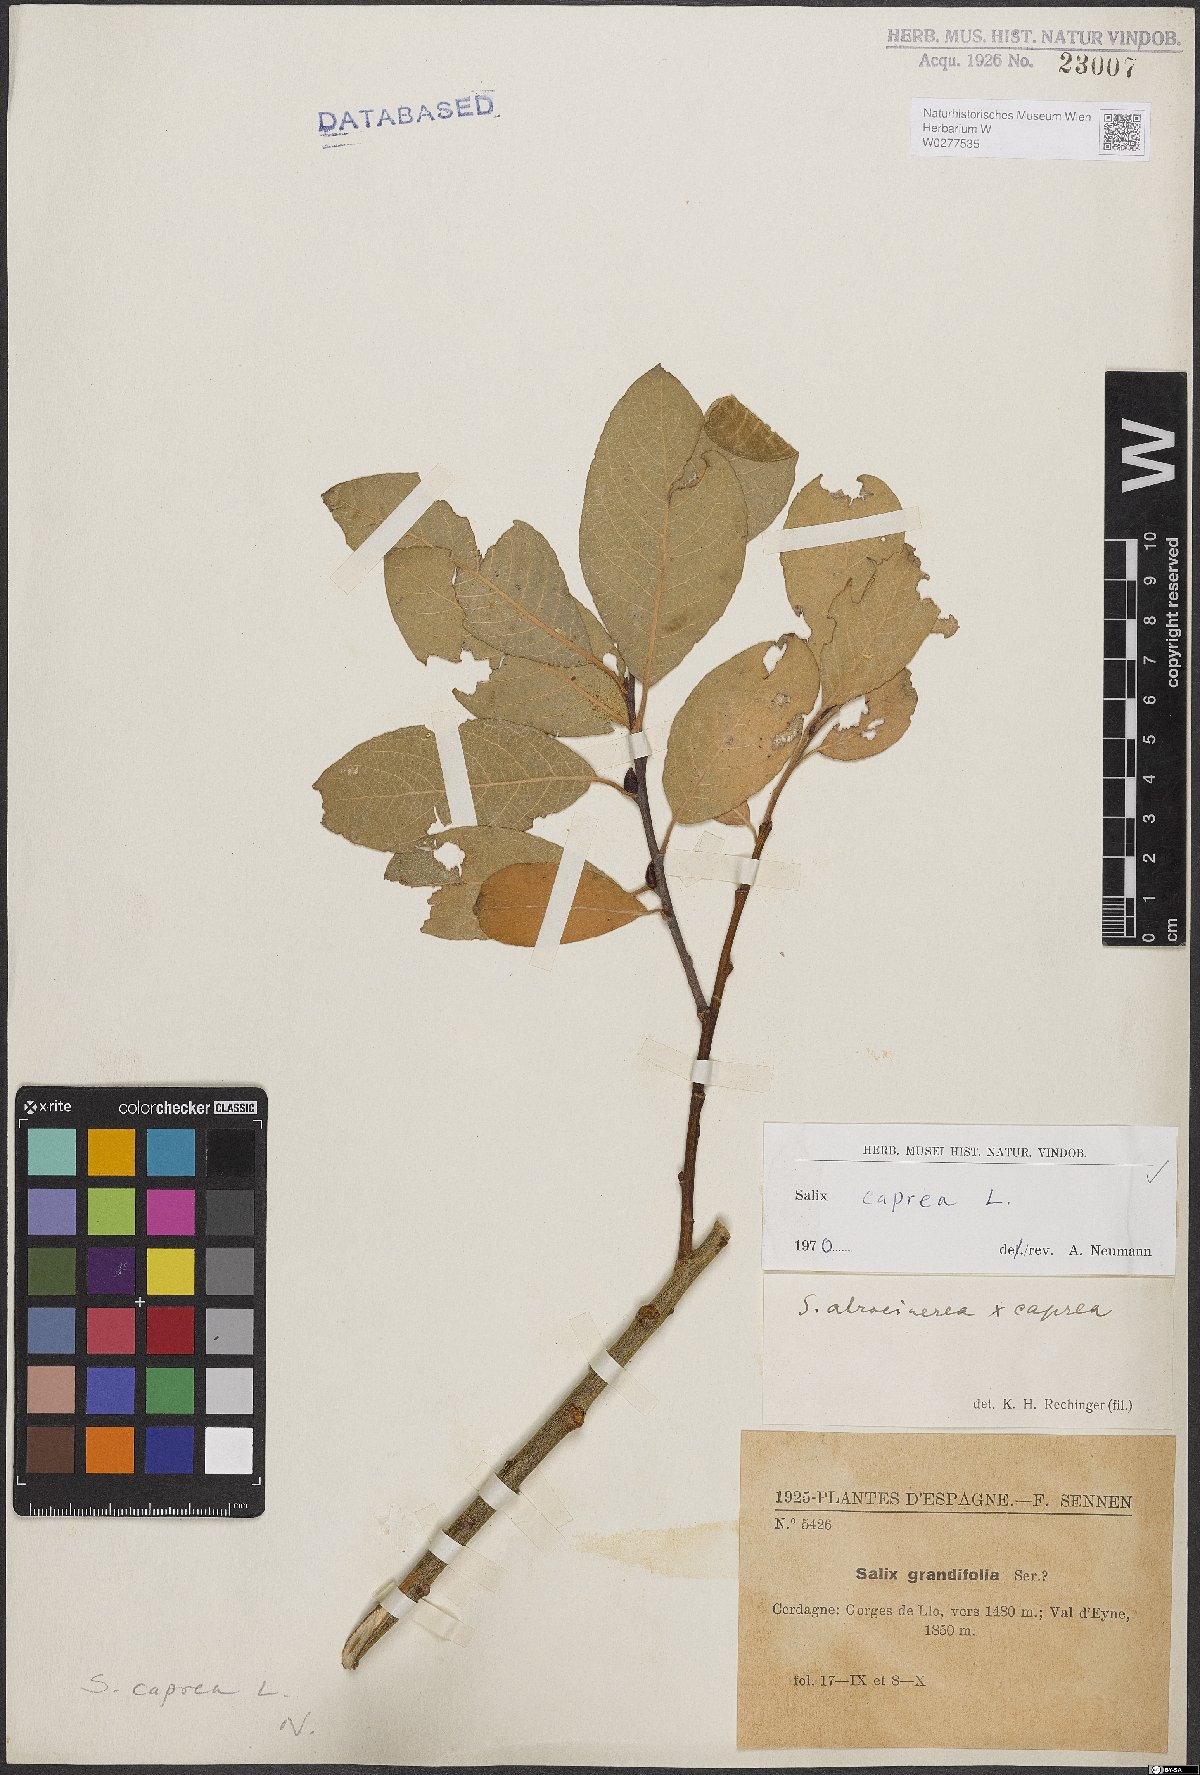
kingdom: Plantae
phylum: Tracheophyta
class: Magnoliopsida
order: Malpighiales
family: Salicaceae
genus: Salix
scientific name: Salix caprea
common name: Goat willow
